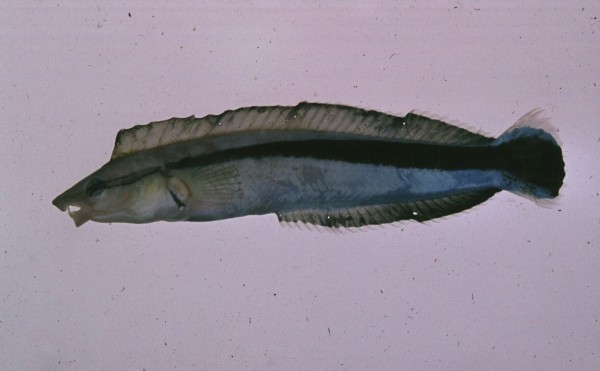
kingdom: Animalia
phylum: Chordata
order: Perciformes
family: Blenniidae
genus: Aspidontus
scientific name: Aspidontus tractus
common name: Mimic blenny
